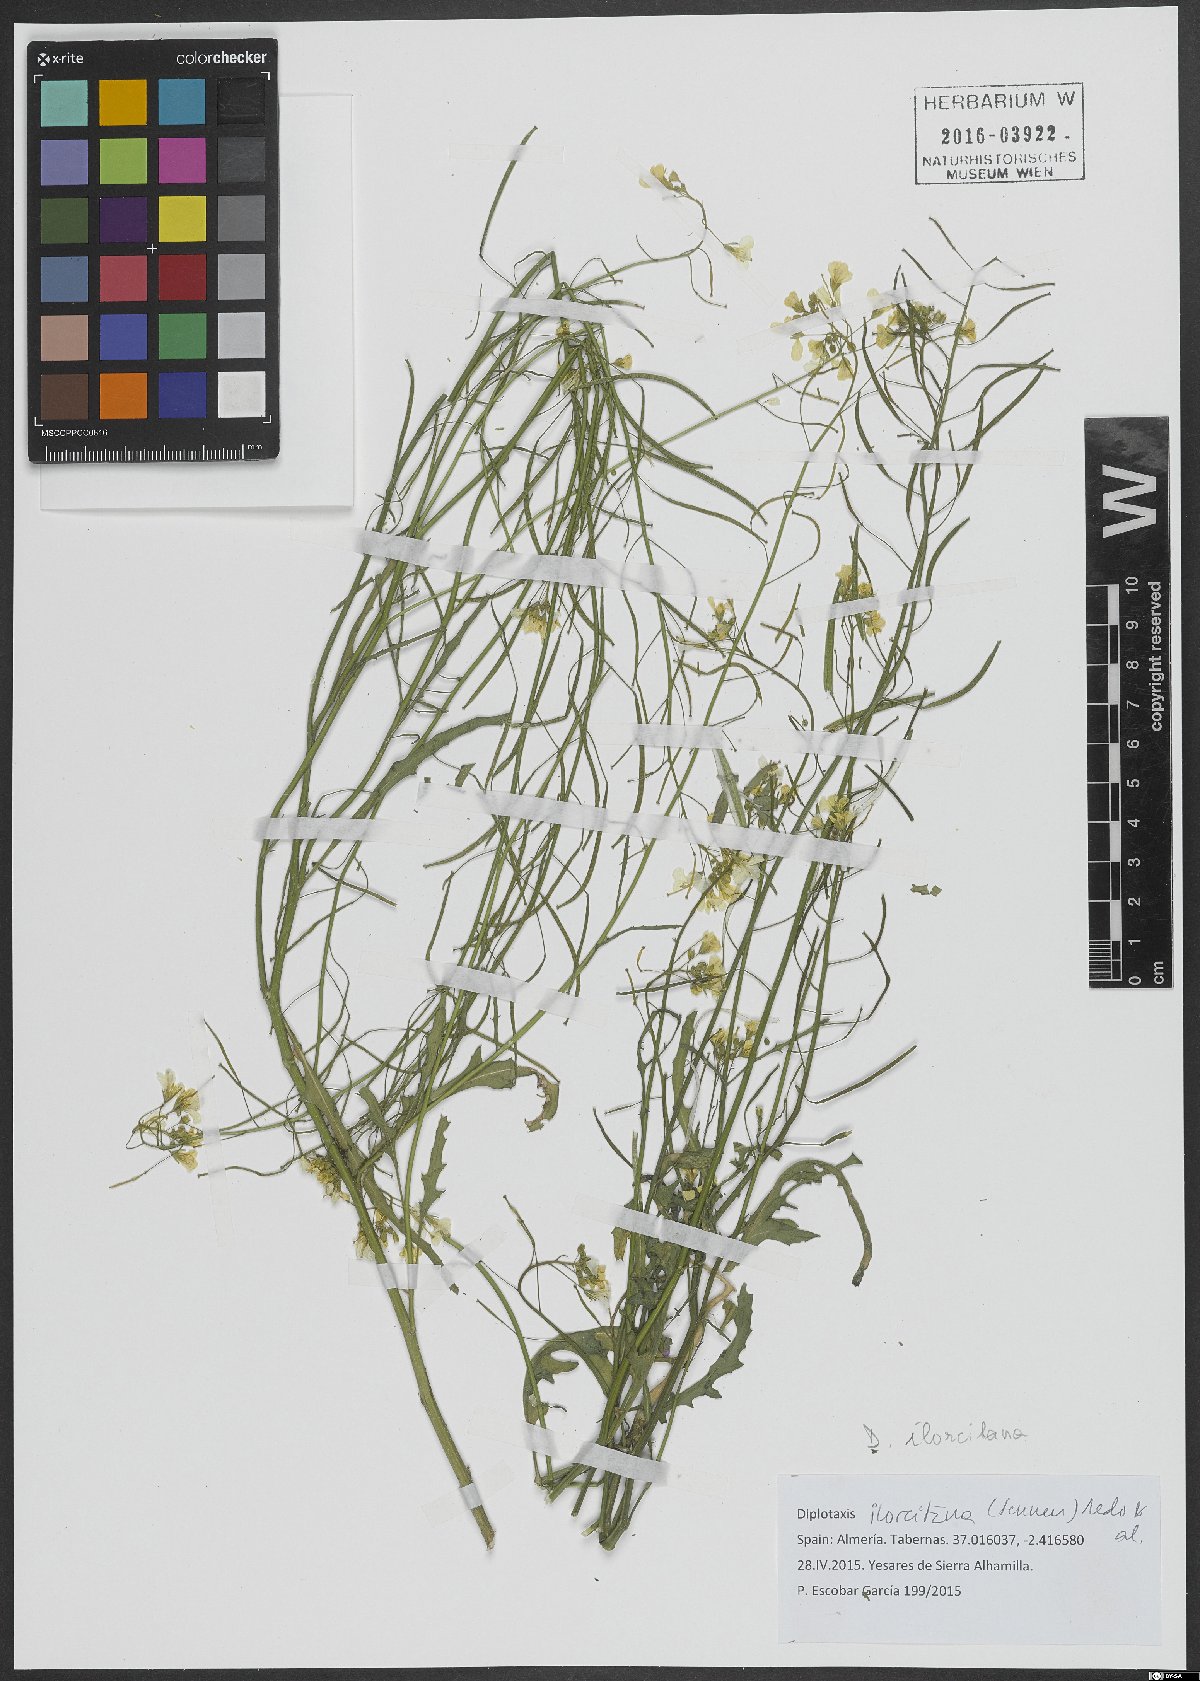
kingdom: Plantae
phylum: Tracheophyta
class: Magnoliopsida
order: Brassicales
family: Brassicaceae
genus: Diplotaxis
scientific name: Diplotaxis ilorcitana
